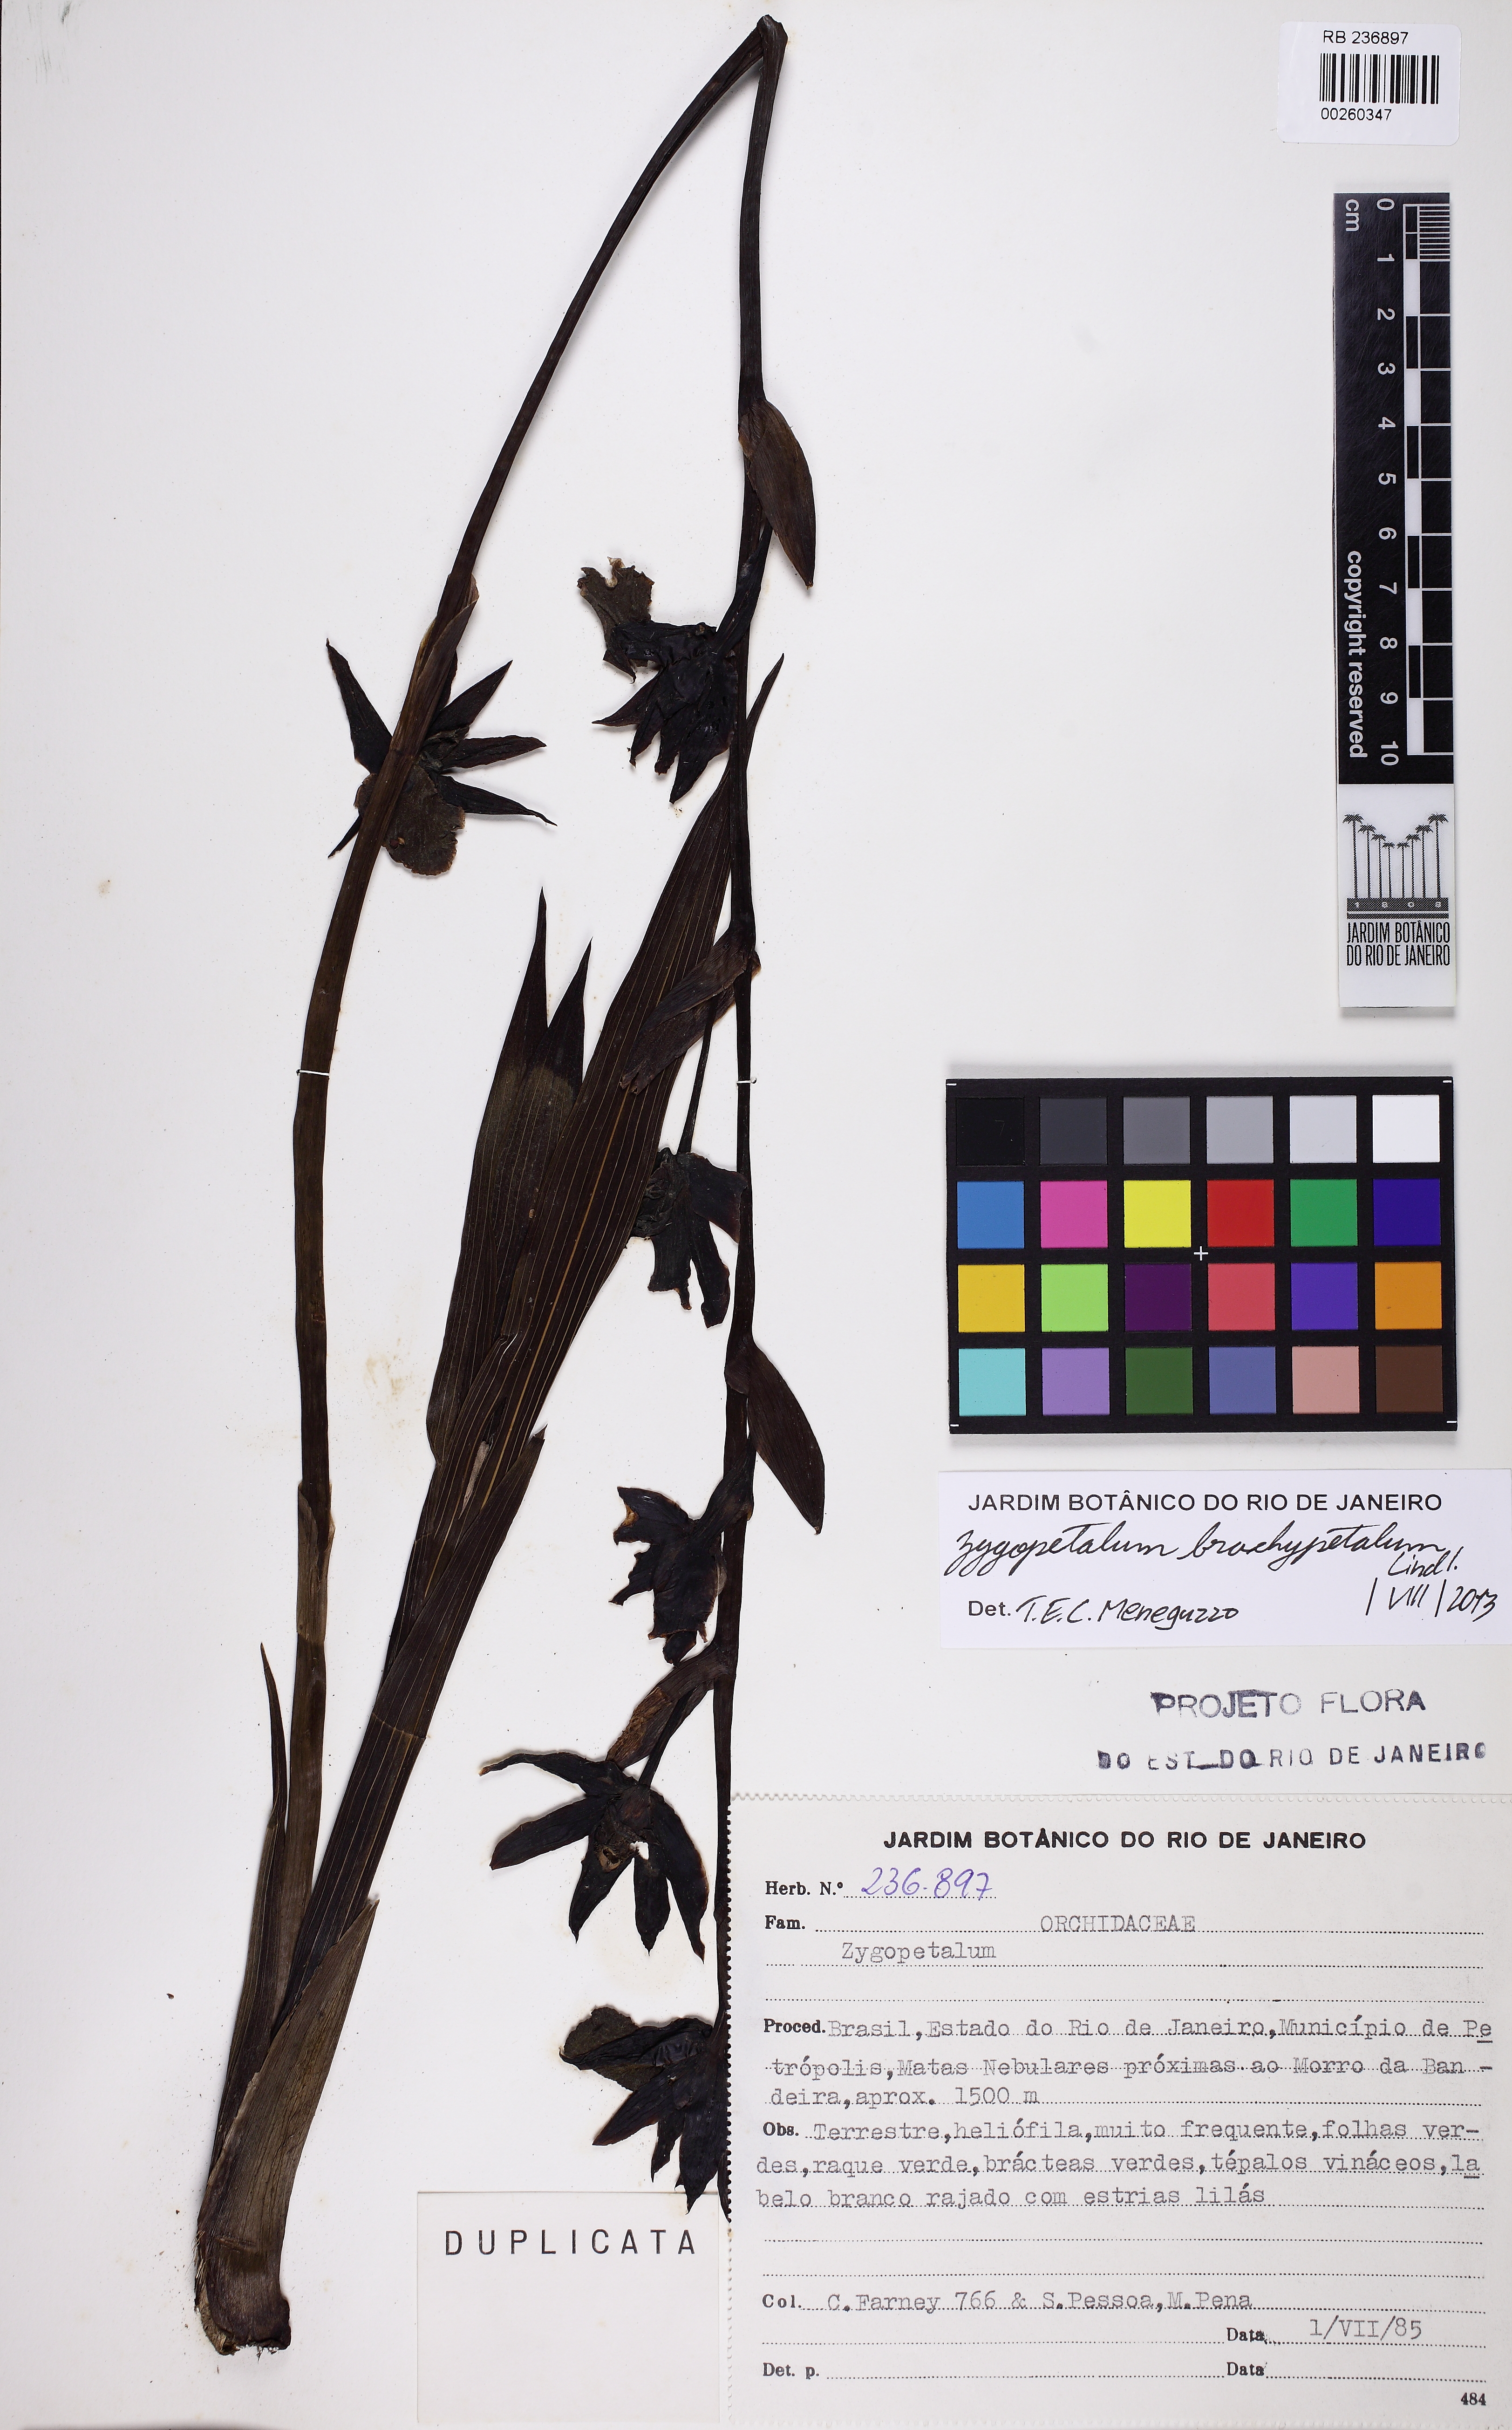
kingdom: Plantae
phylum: Tracheophyta
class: Liliopsida
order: Asparagales
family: Orchidaceae
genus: Zygopetalum
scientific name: Zygopetalum maculatum
